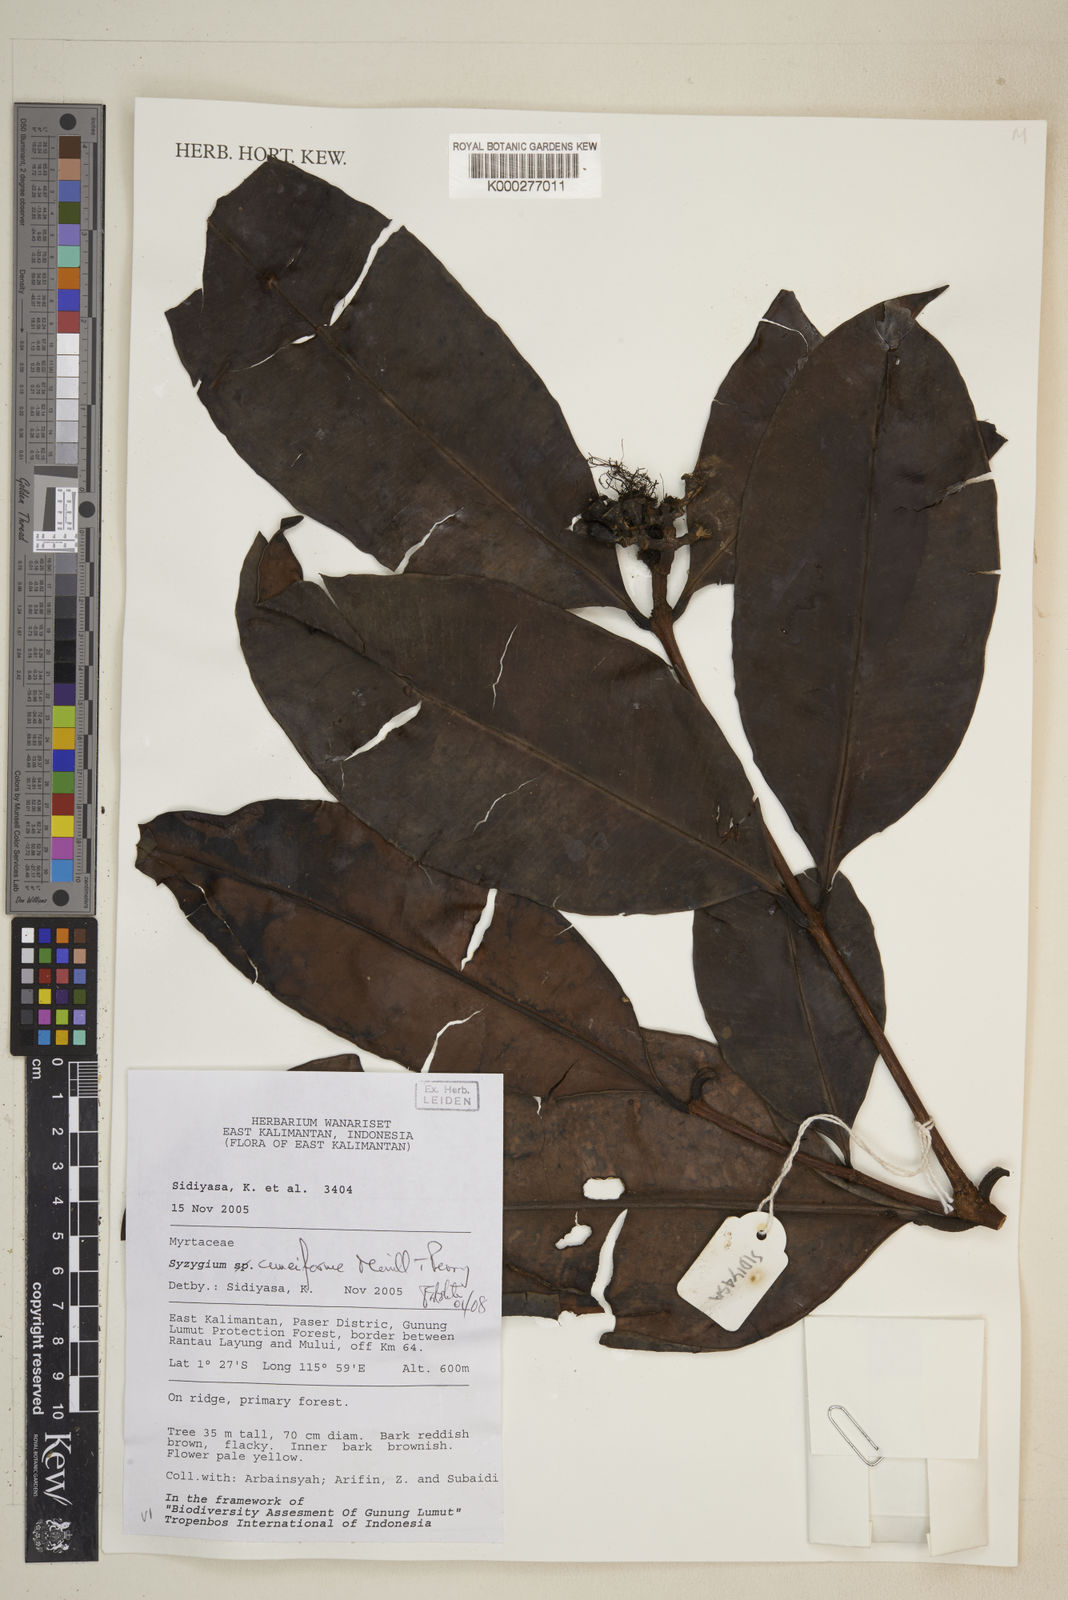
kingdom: Plantae
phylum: Tracheophyta
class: Magnoliopsida
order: Myrtales
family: Myrtaceae
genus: Syzygium
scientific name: Syzygium cuneiforme
